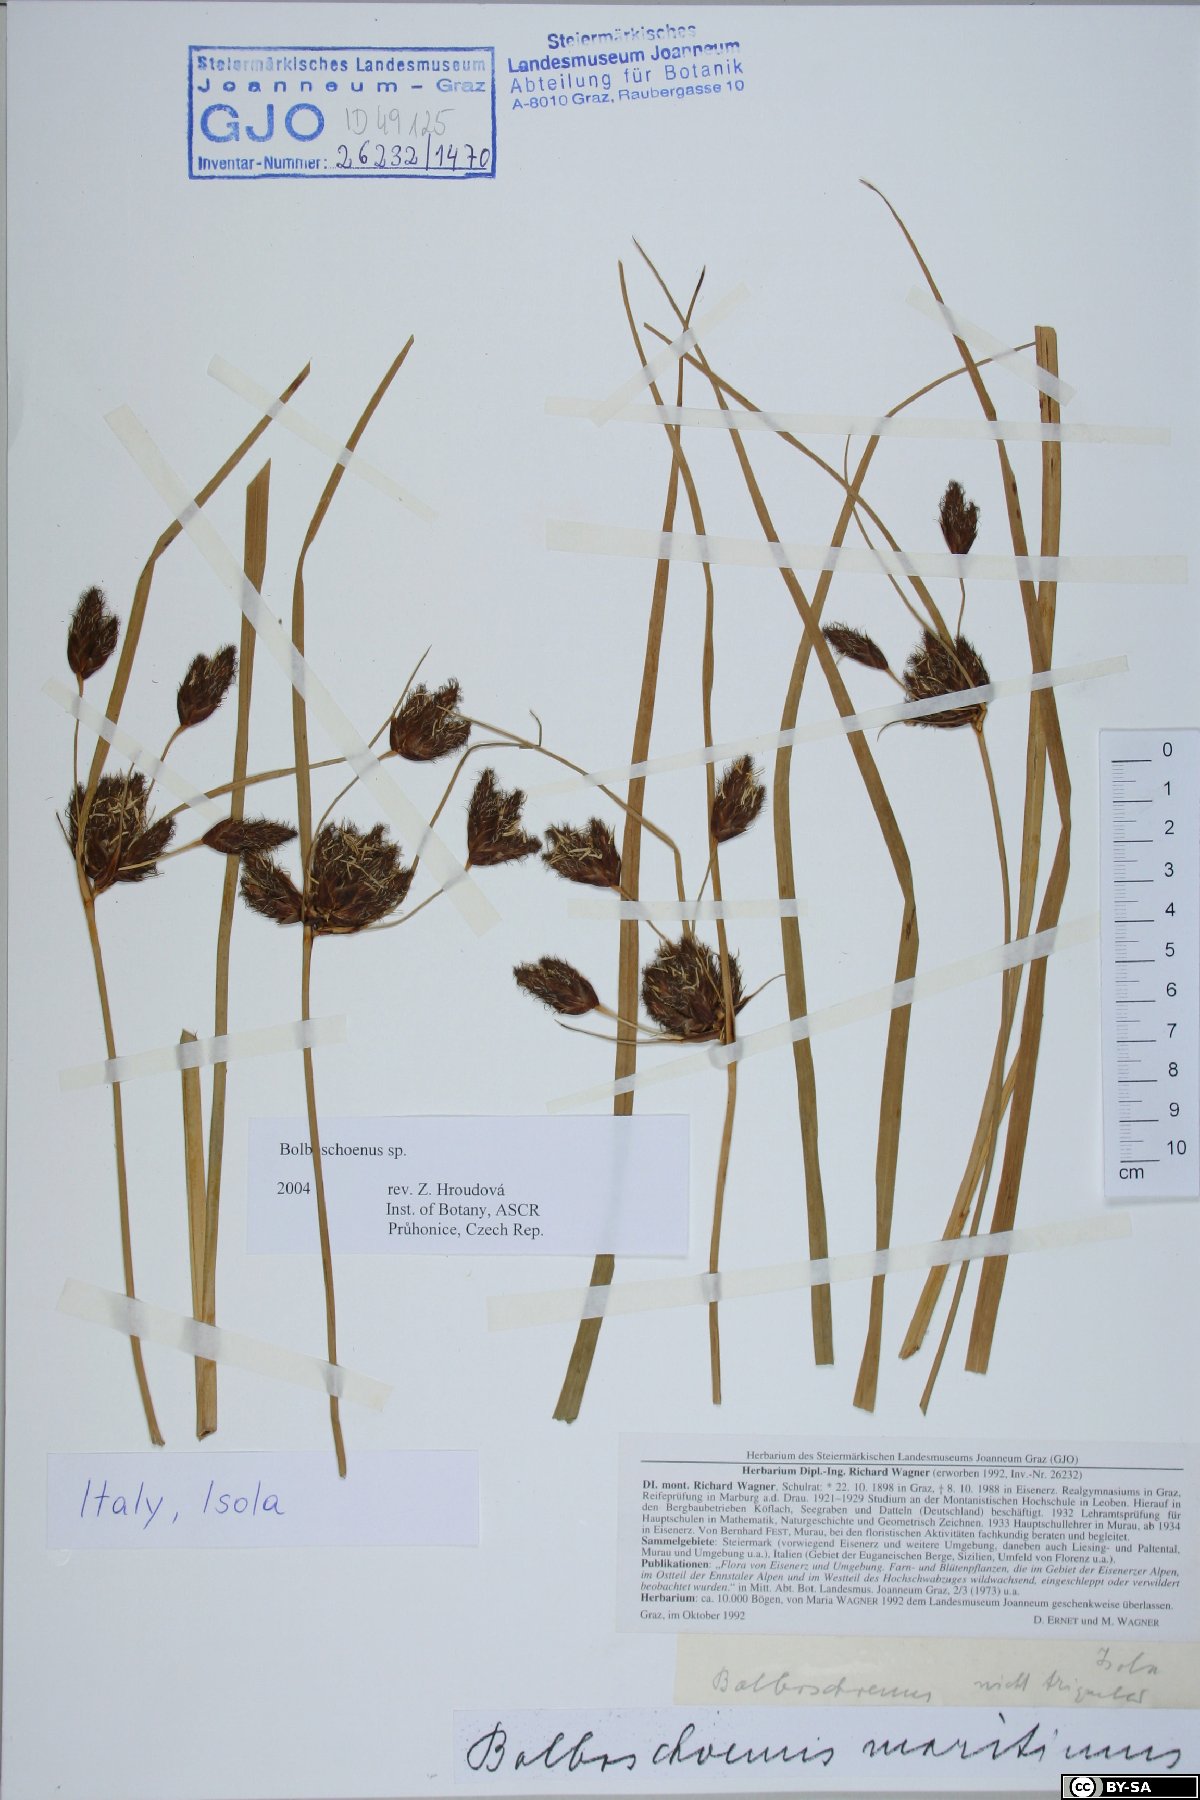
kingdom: Plantae
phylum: Tracheophyta
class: Liliopsida
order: Poales
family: Cyperaceae
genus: Bolboschoenus
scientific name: Bolboschoenus
